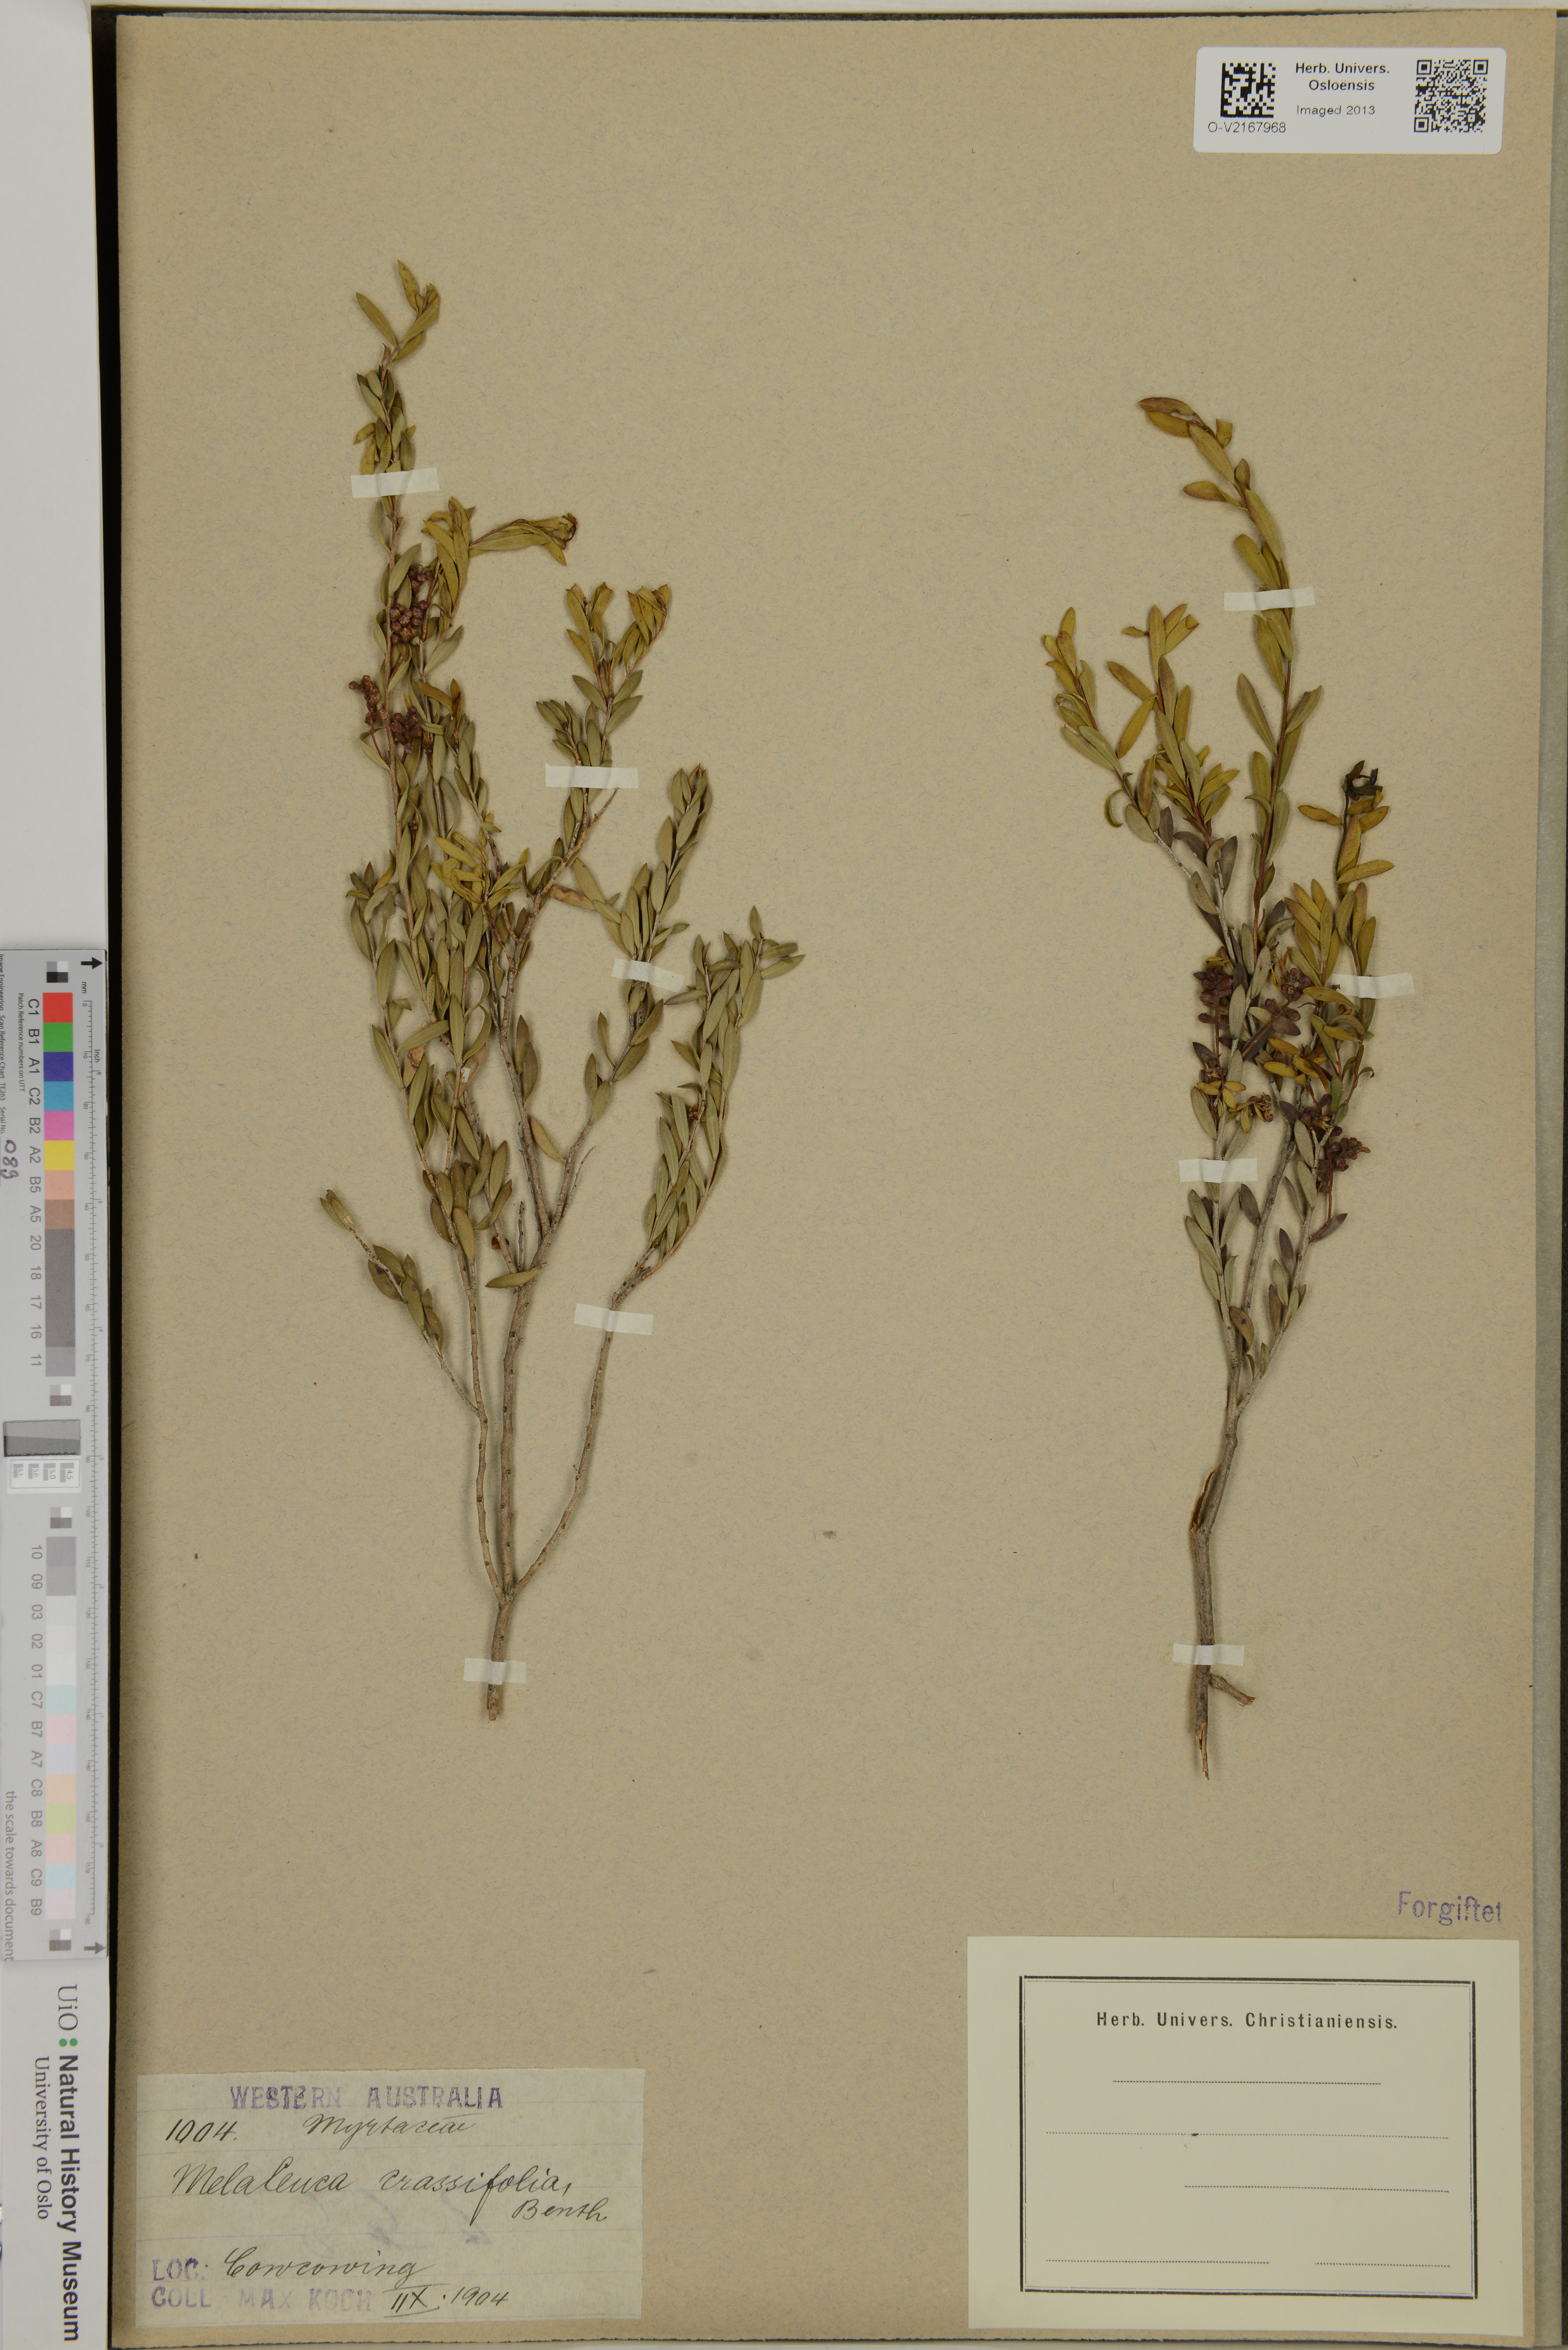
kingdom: Plantae
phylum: Tracheophyta
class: Magnoliopsida
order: Myrtales
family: Myrtaceae
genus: Melaleuca
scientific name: Melaleuca laxiflora
